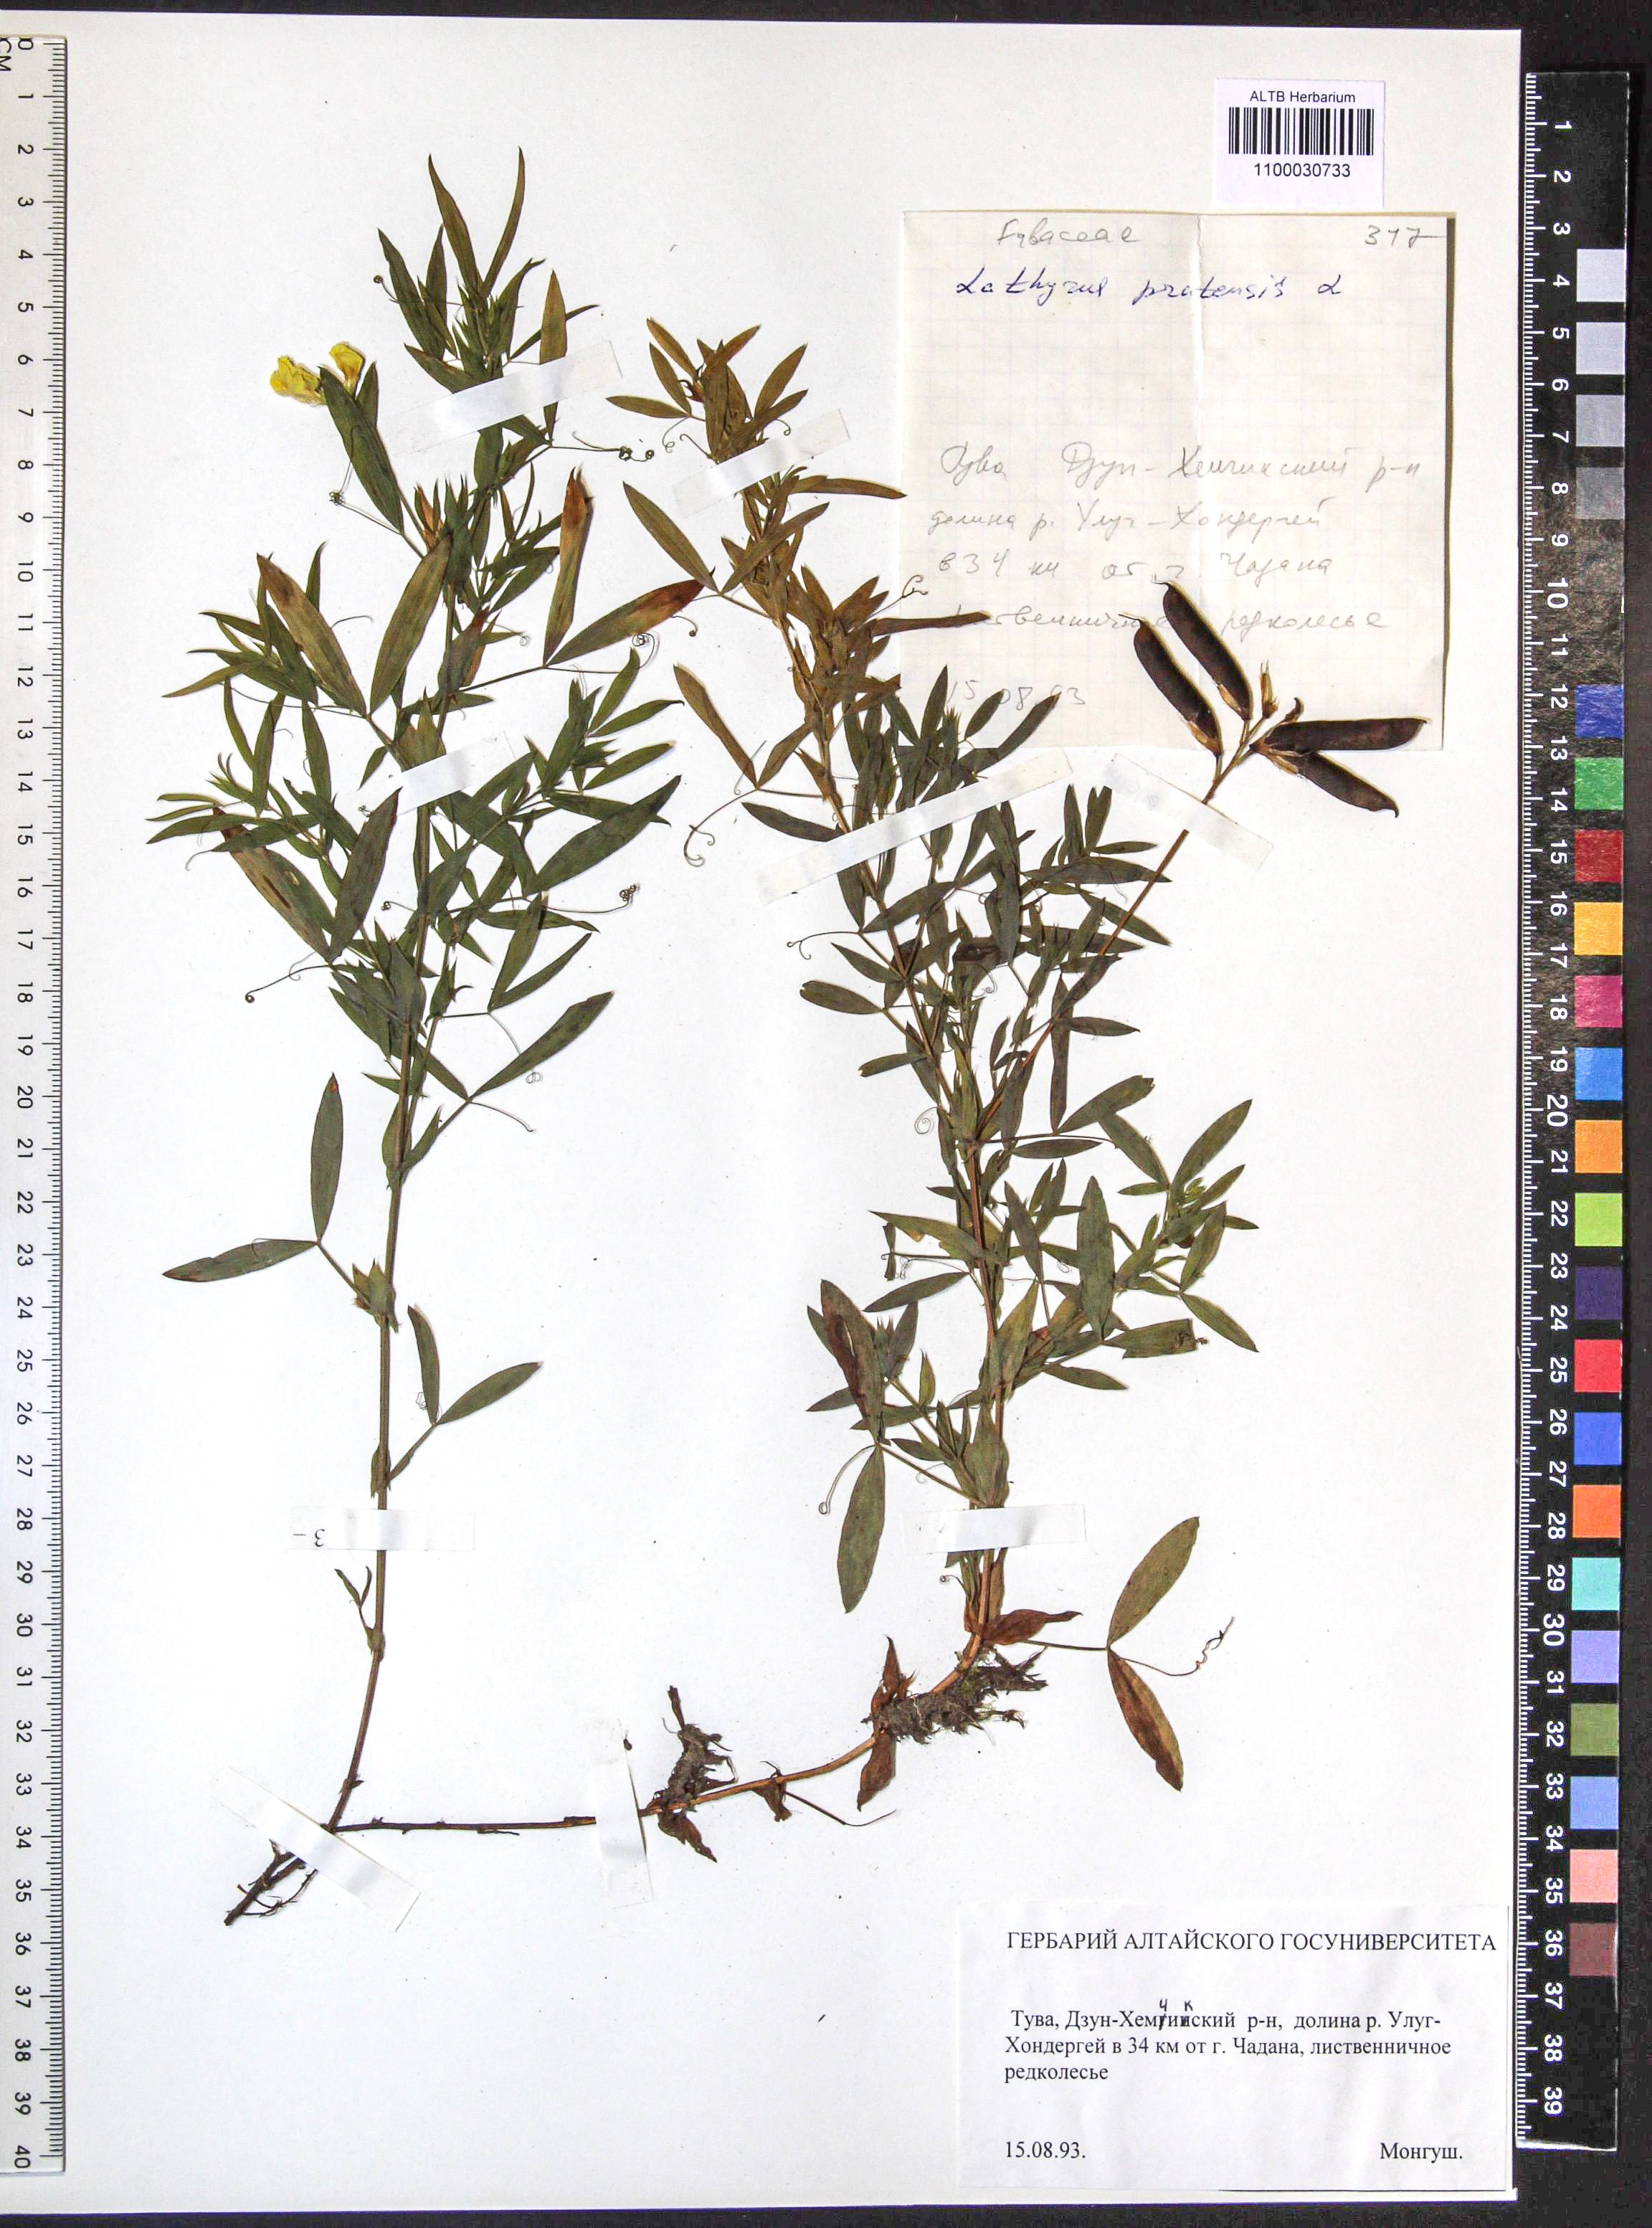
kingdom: Plantae
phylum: Tracheophyta
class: Magnoliopsida
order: Fabales
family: Fabaceae
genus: Lathyrus
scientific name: Lathyrus pratensis
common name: Meadow vetchling
